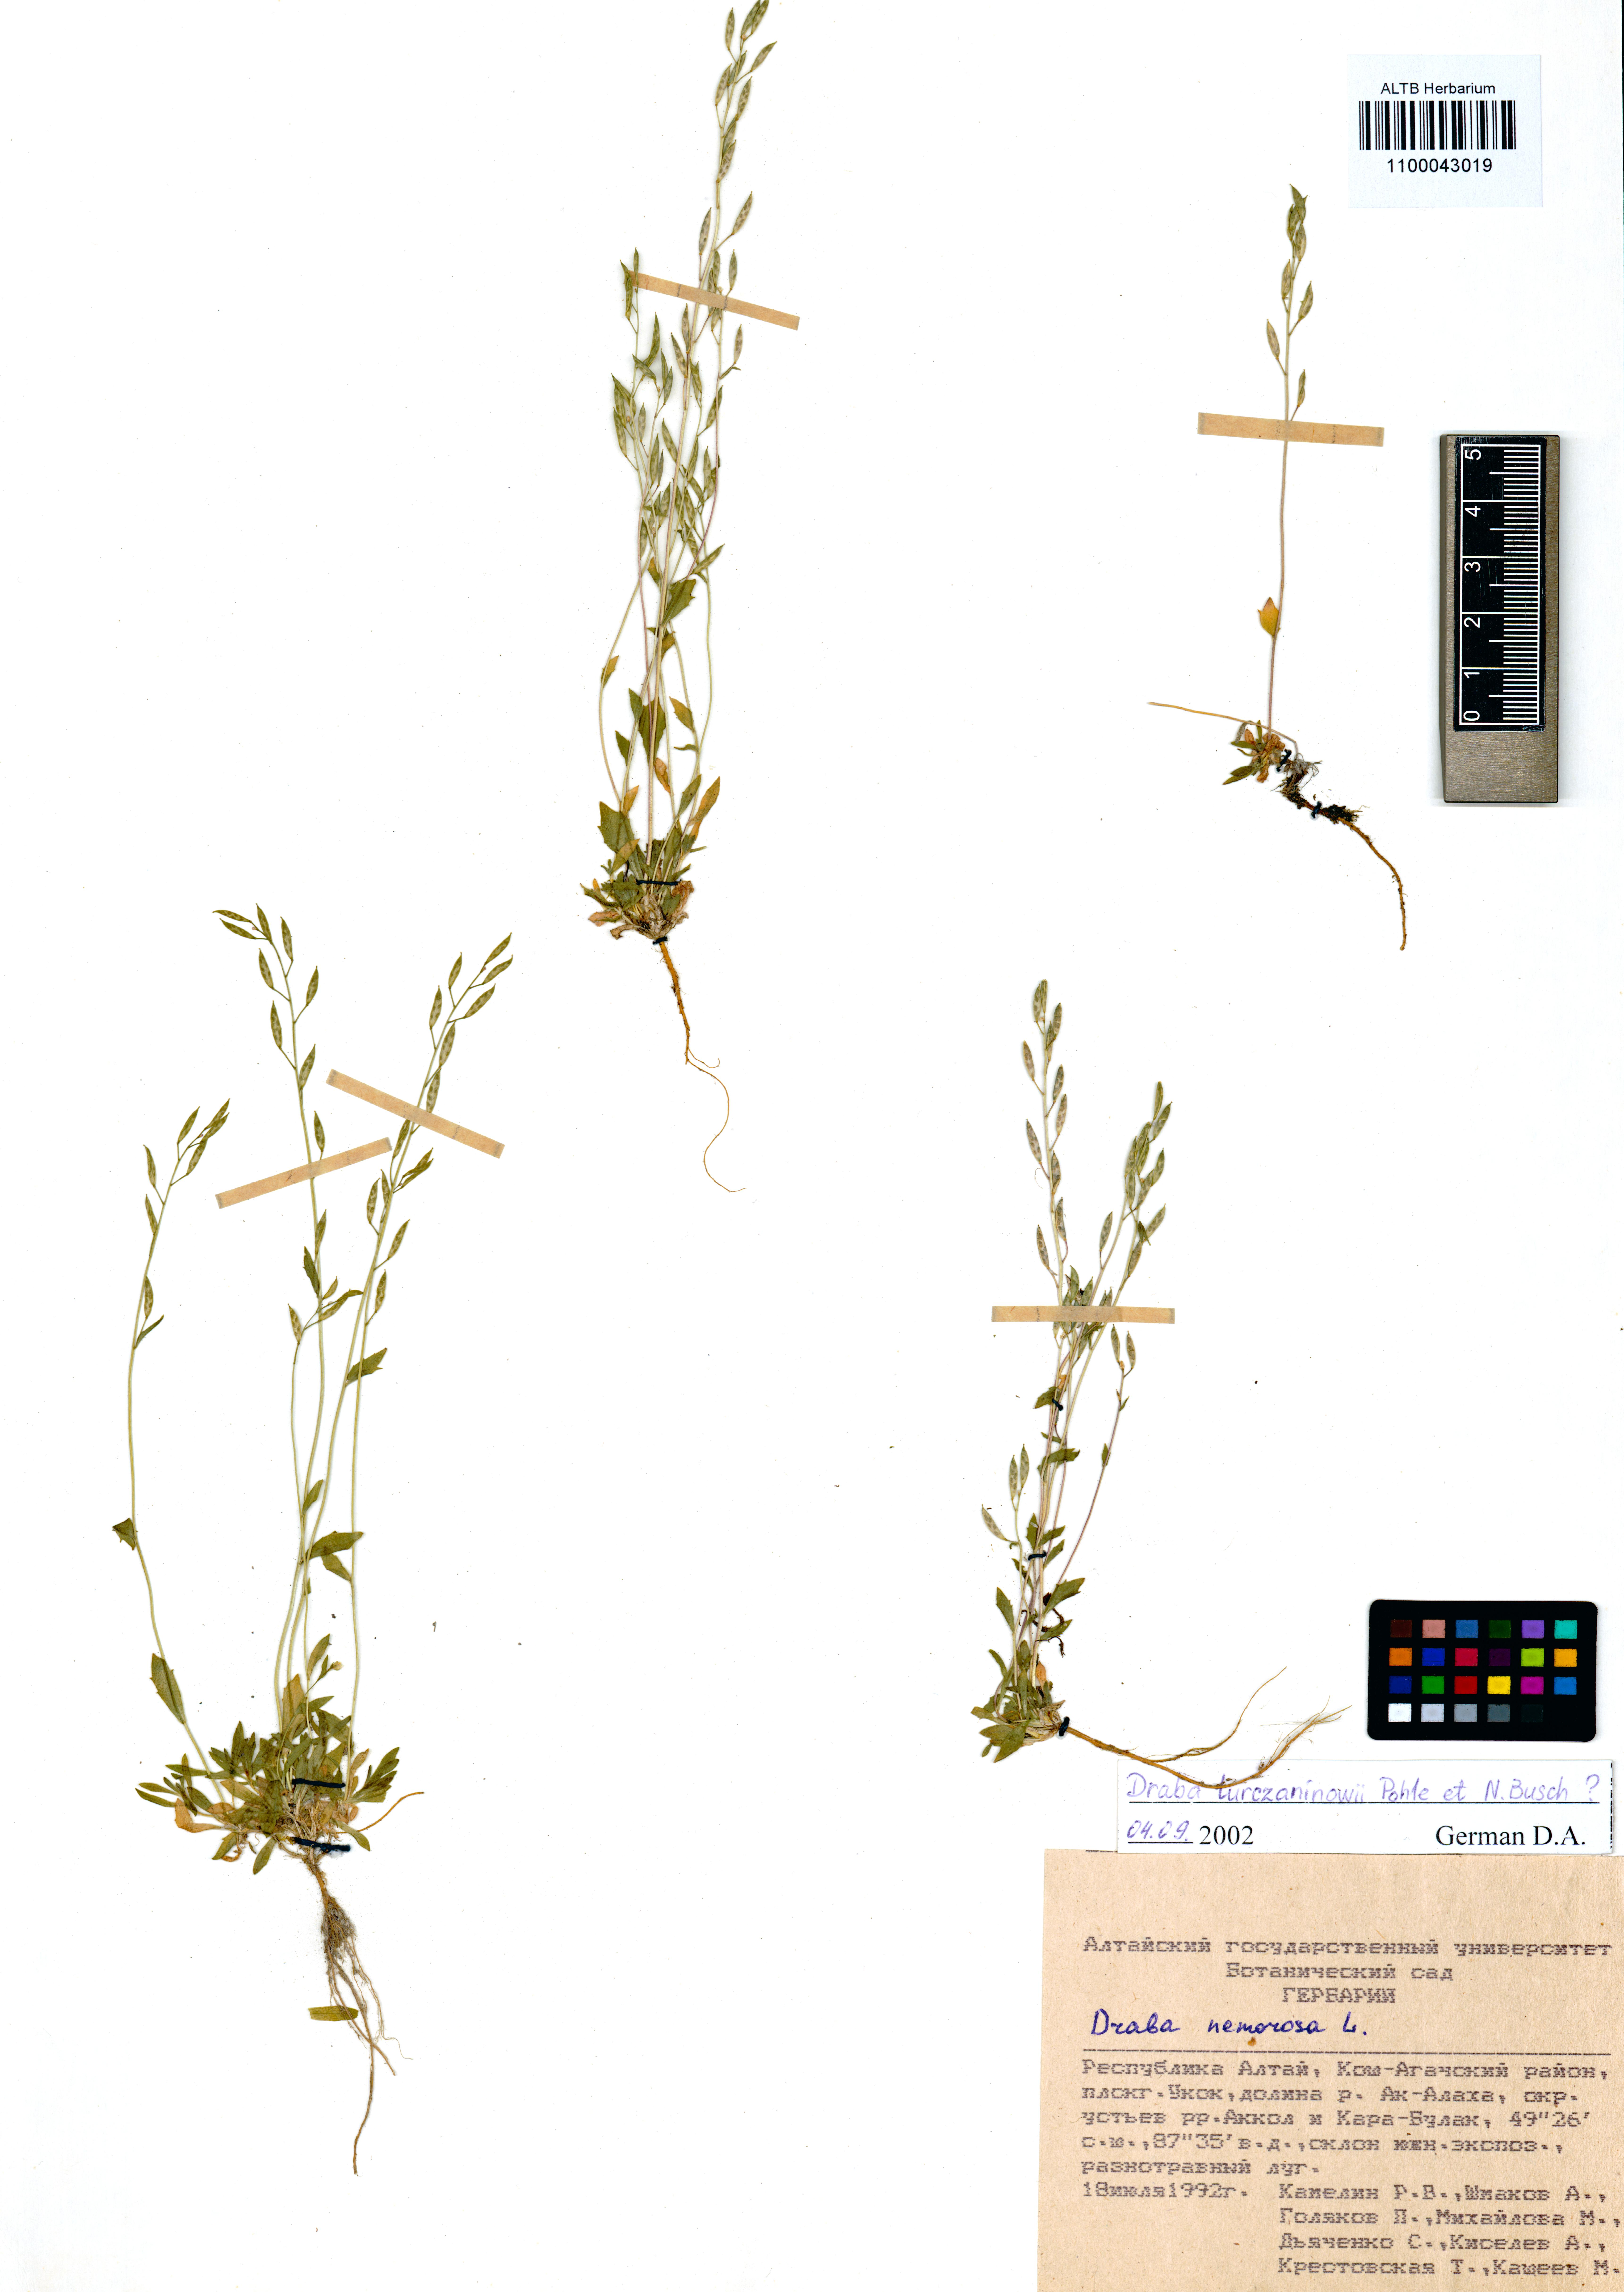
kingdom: Plantae
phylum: Tracheophyta
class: Magnoliopsida
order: Brassicales
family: Brassicaceae
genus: Draba
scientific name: Draba turczaninovii
